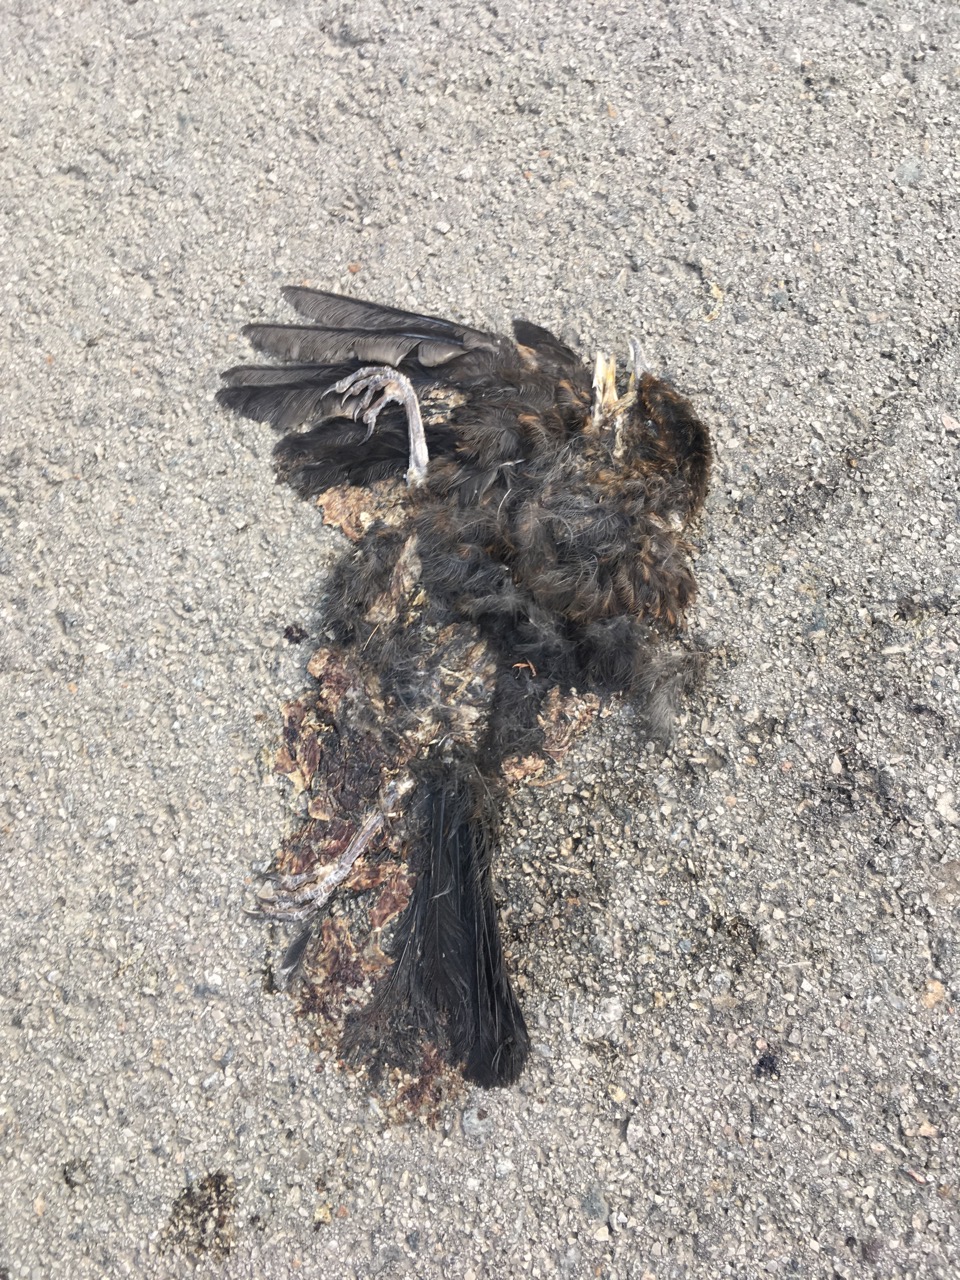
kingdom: Animalia
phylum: Chordata
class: Aves
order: Passeriformes
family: Turdidae
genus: Turdus
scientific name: Turdus merula
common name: Common blackbird
